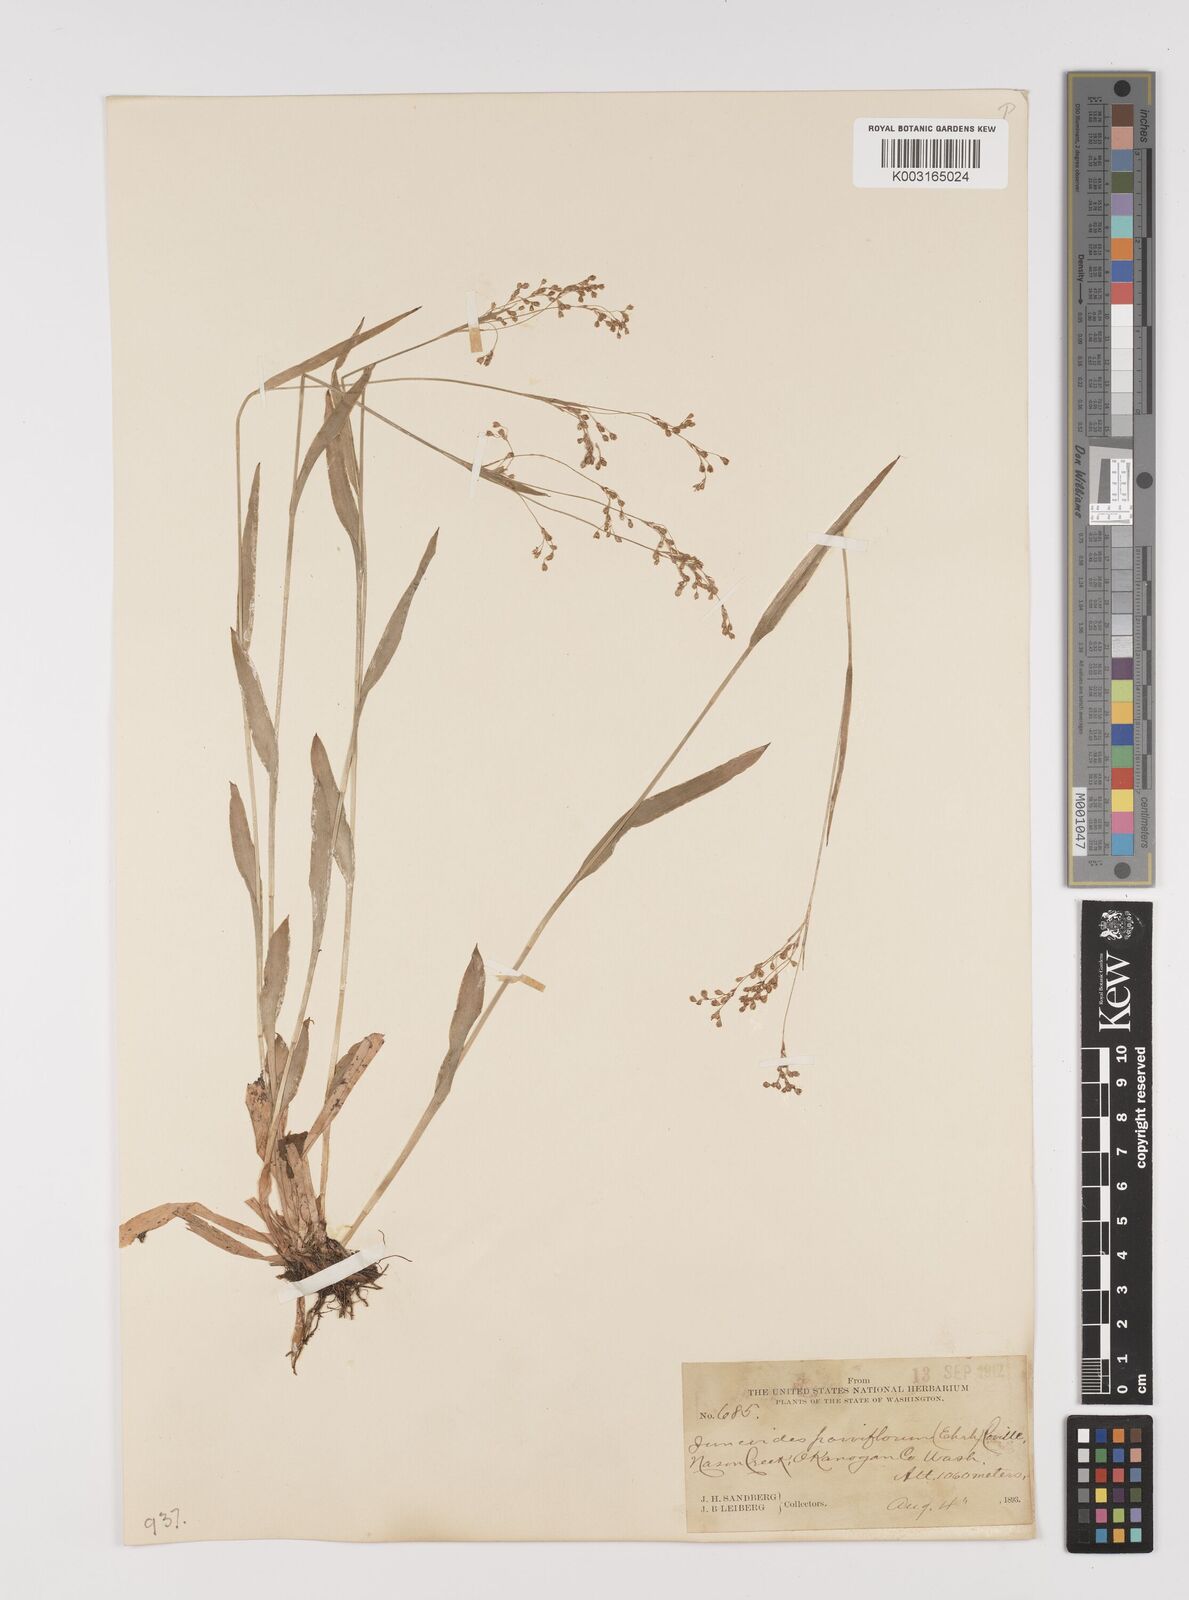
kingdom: Plantae
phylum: Tracheophyta
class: Liliopsida
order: Poales
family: Juncaceae
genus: Luzula
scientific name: Luzula parviflora
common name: Millet woodrush
